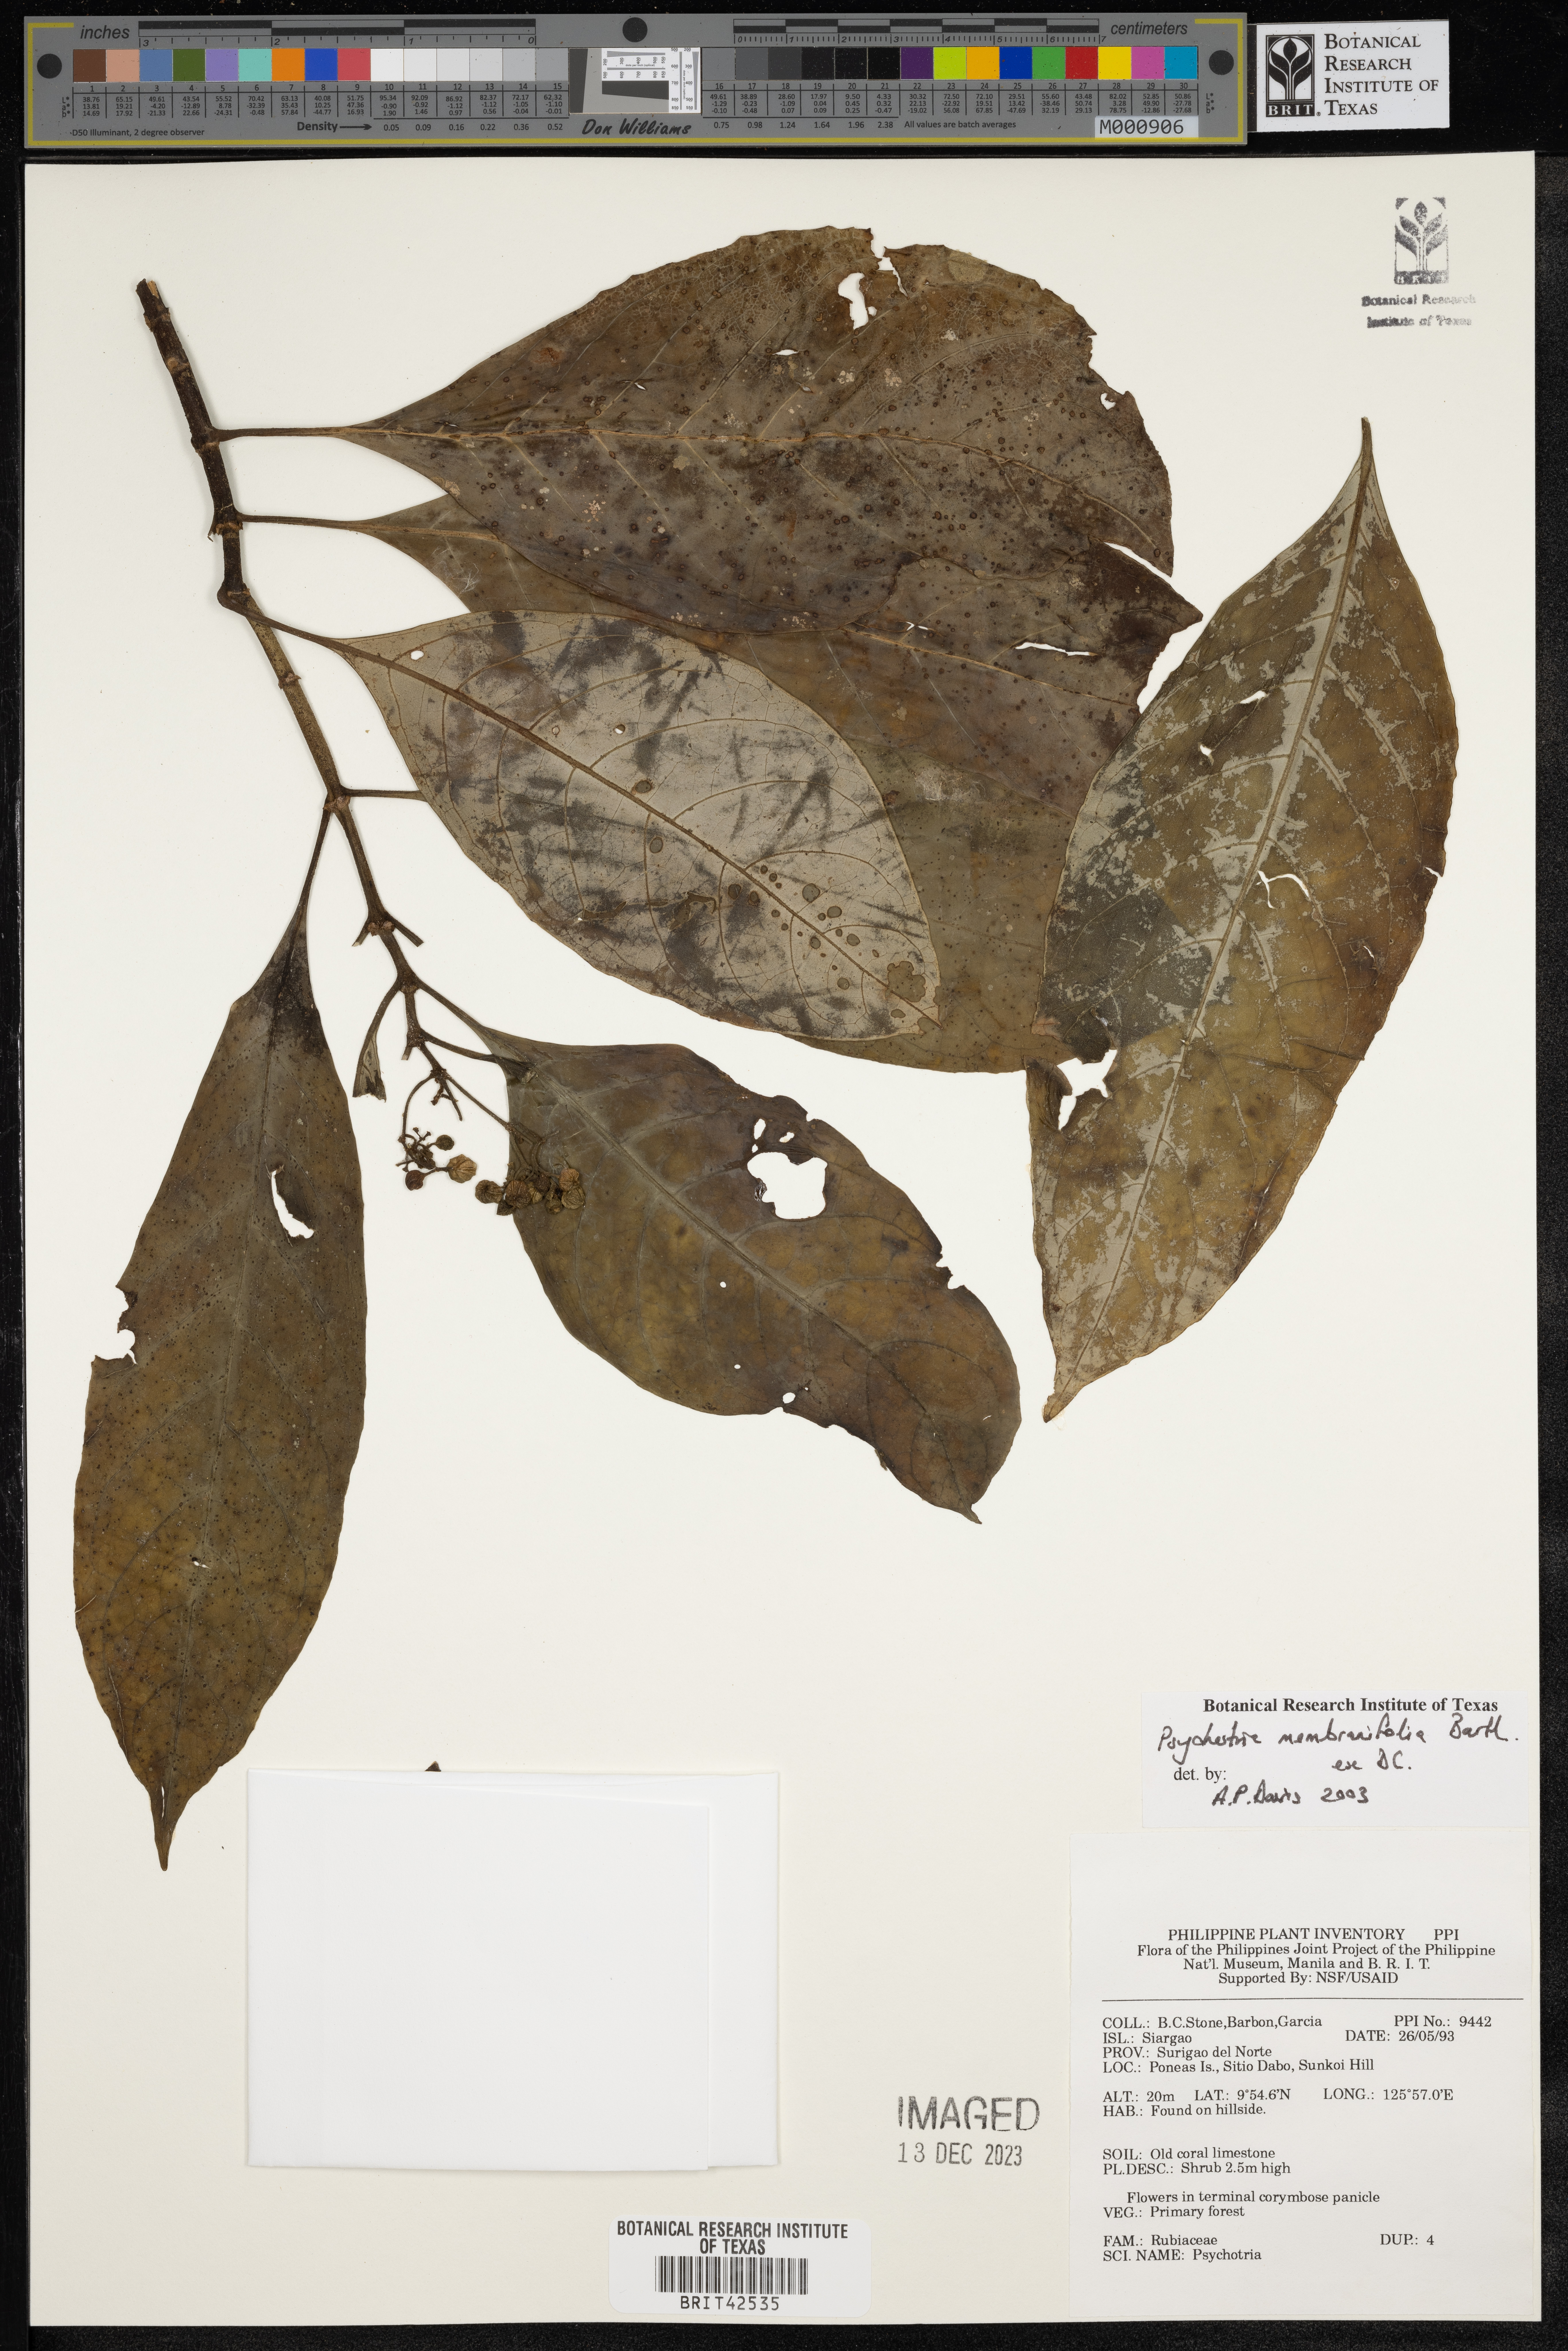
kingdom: Plantae
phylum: Tracheophyta
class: Magnoliopsida
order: Gentianales
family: Rubiaceae
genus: Eumachia
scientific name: Eumachia membranifolia
